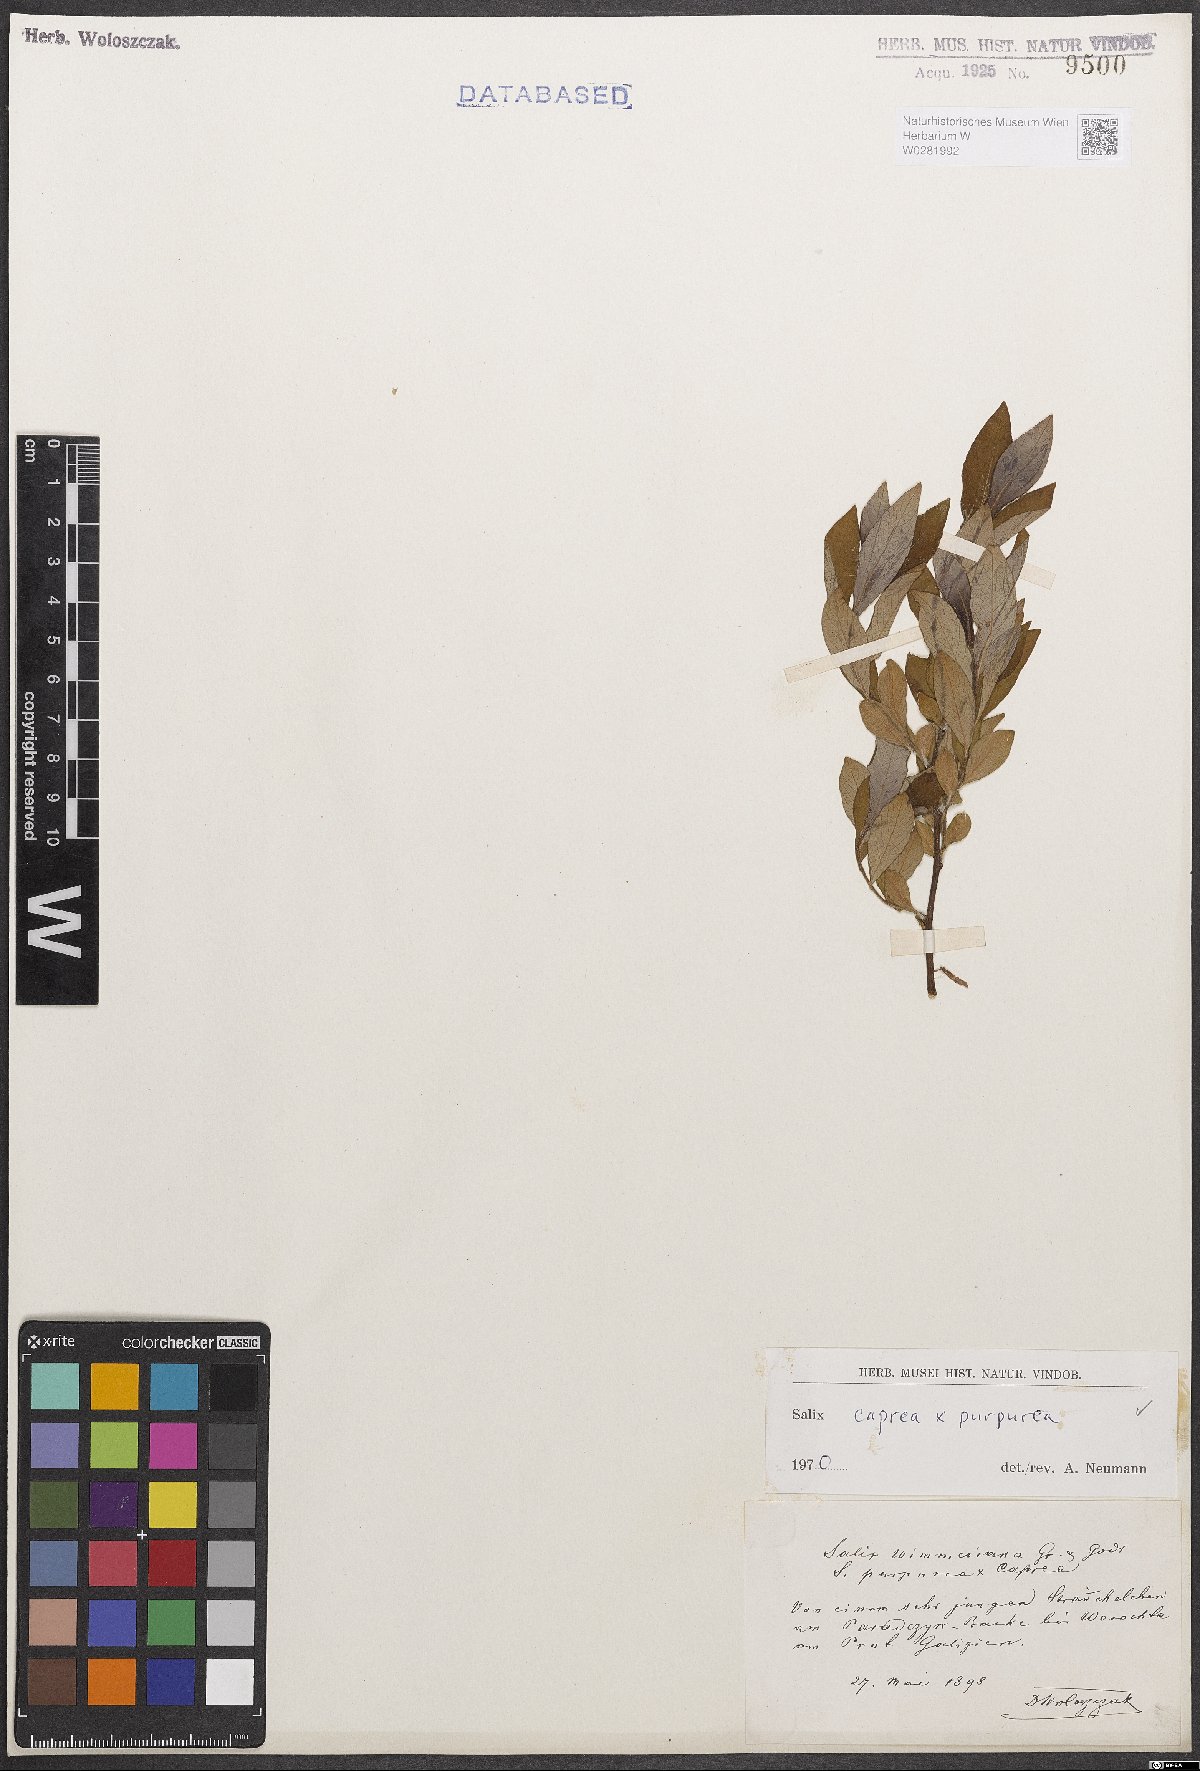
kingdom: Plantae
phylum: Tracheophyta
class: Magnoliopsida
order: Malpighiales
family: Salicaceae
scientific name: Salicaceae
